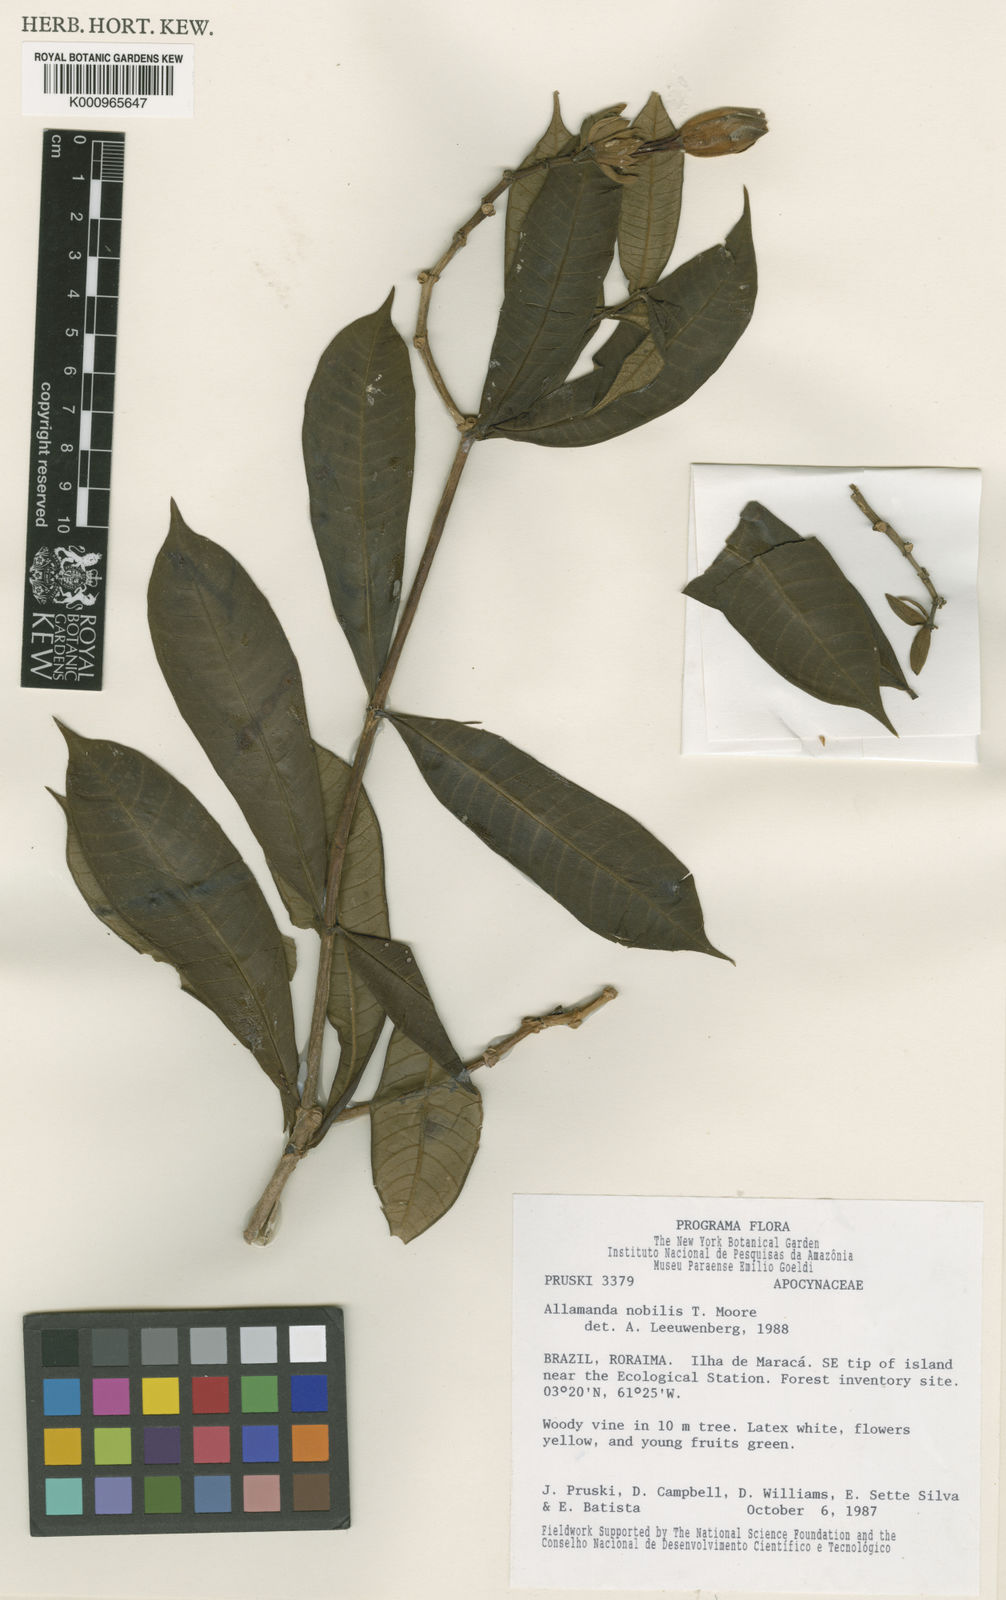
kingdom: Plantae
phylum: Tracheophyta
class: Magnoliopsida
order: Gentianales
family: Apocynaceae
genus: Allamanda
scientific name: Allamanda nobilis
